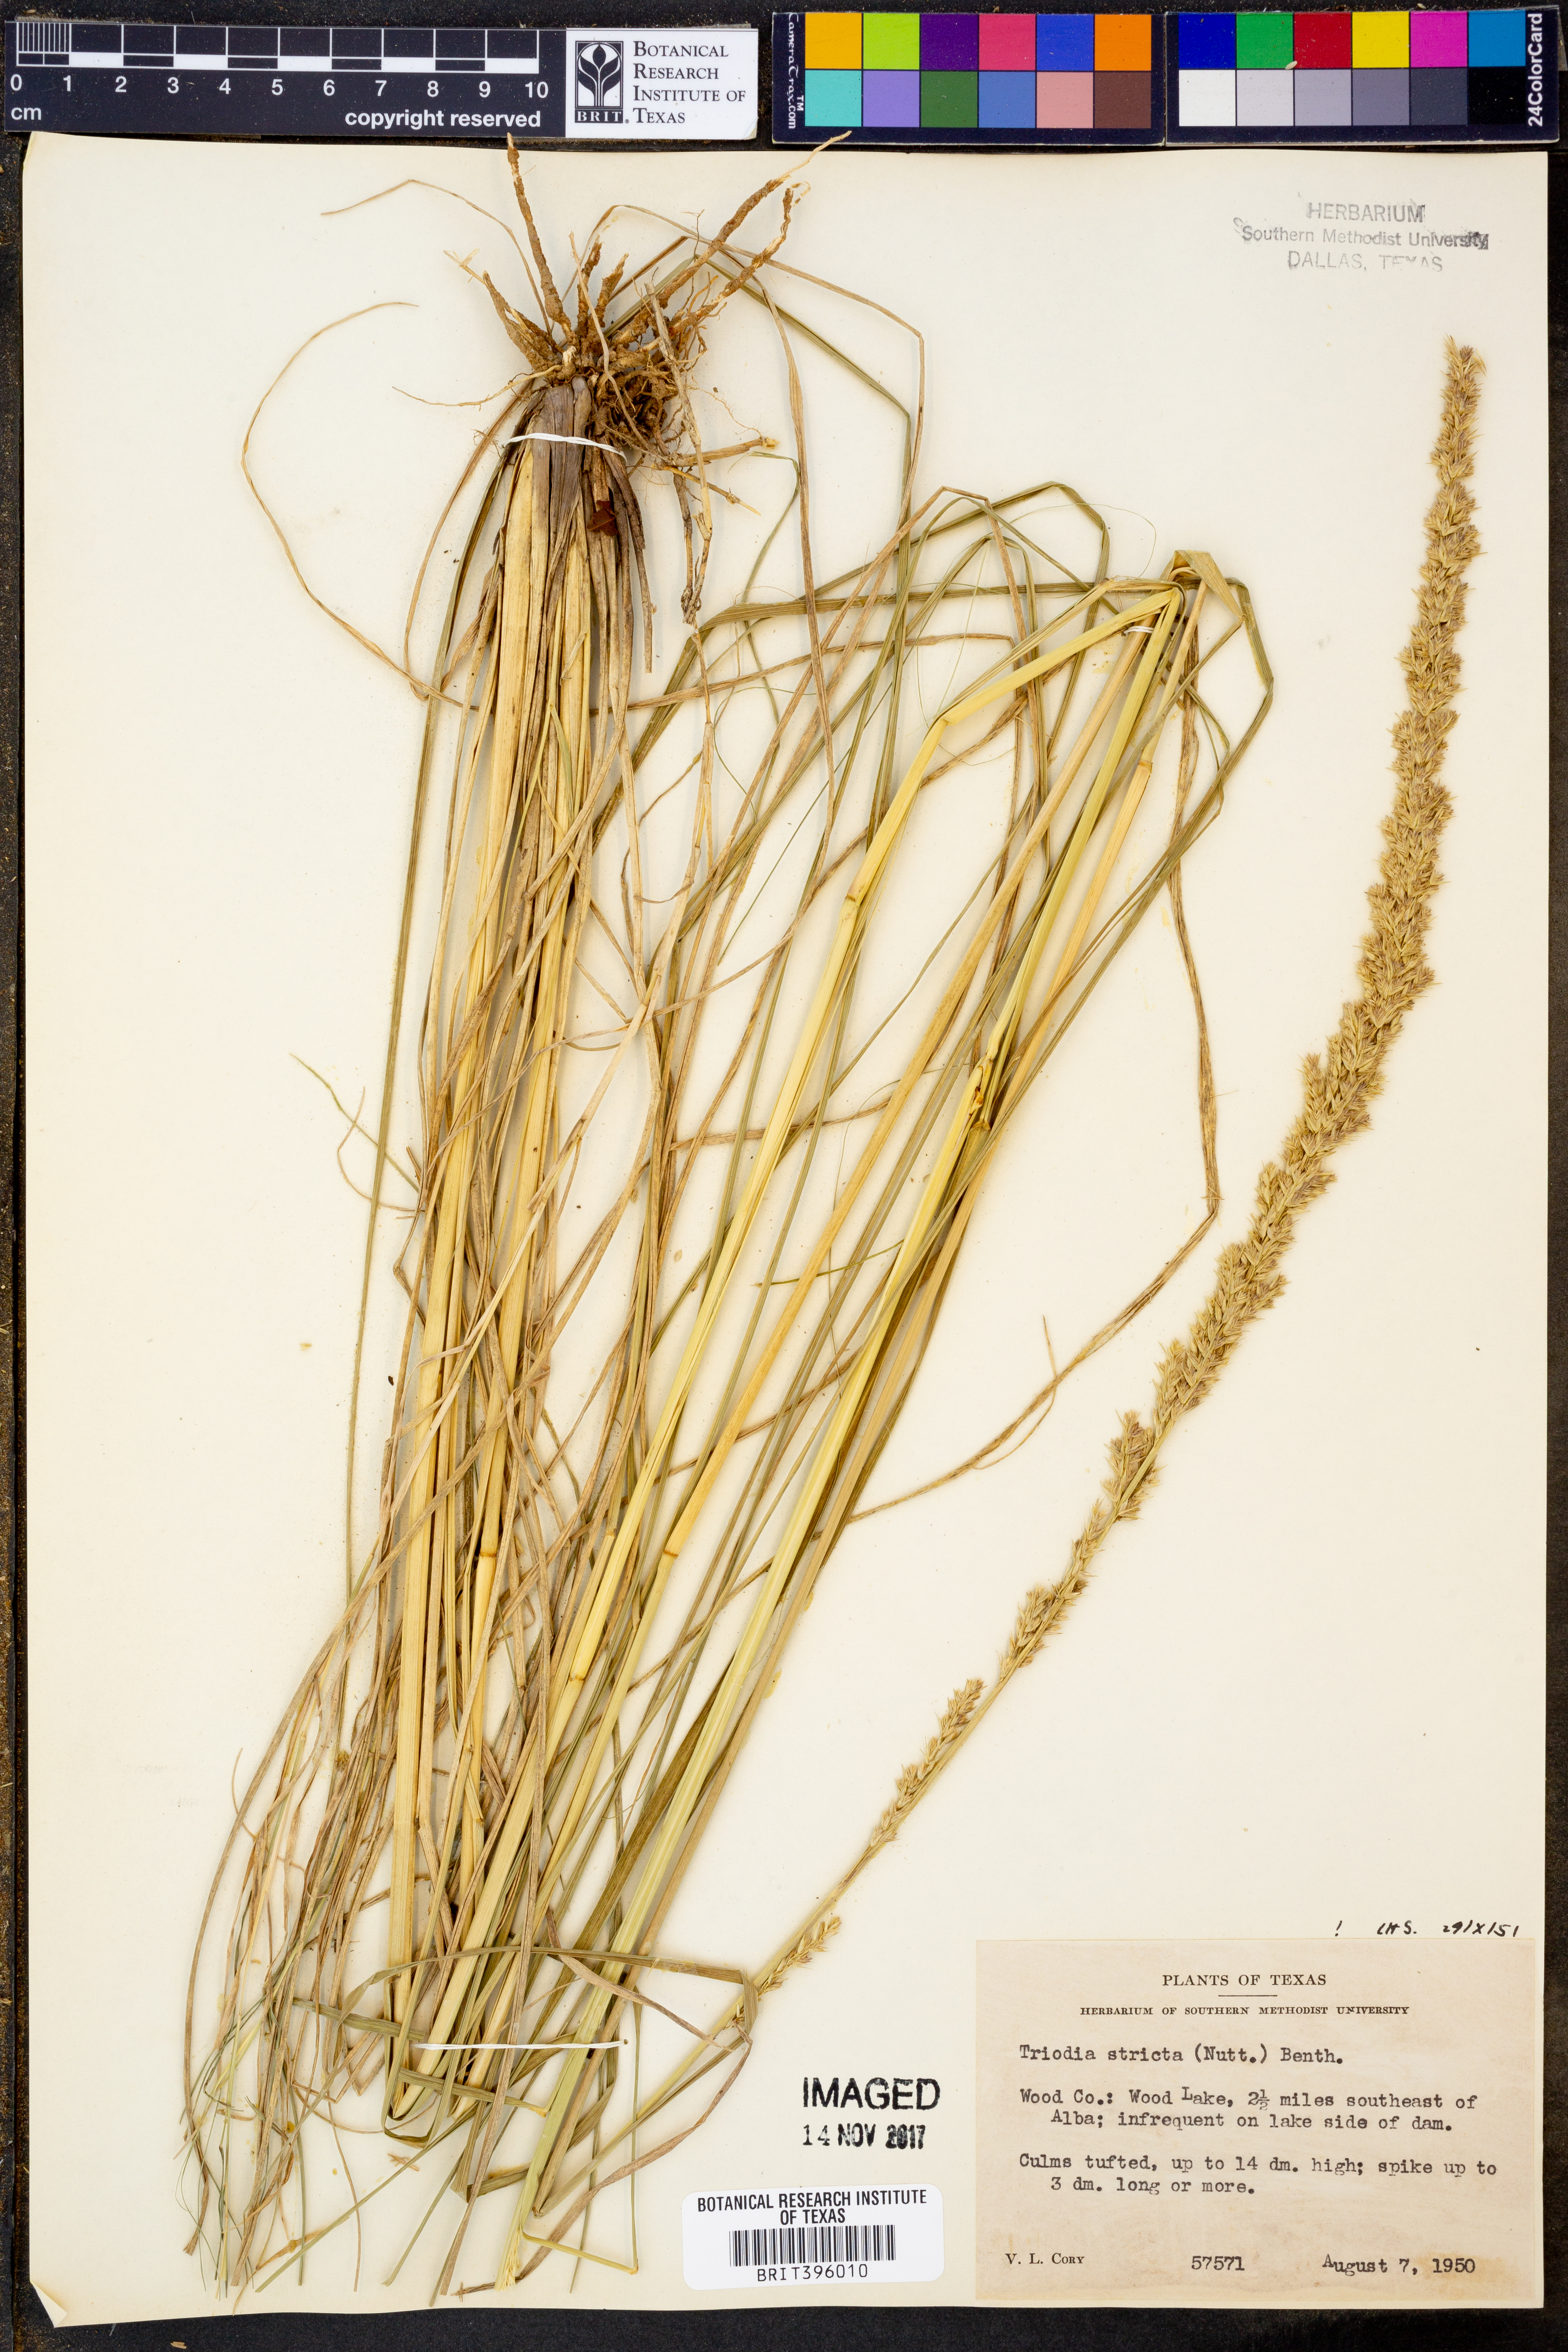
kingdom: Plantae
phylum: Tracheophyta
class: Liliopsida
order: Poales
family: Poaceae
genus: Tridens
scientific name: Tridens strictus
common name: Long-spike tridens
